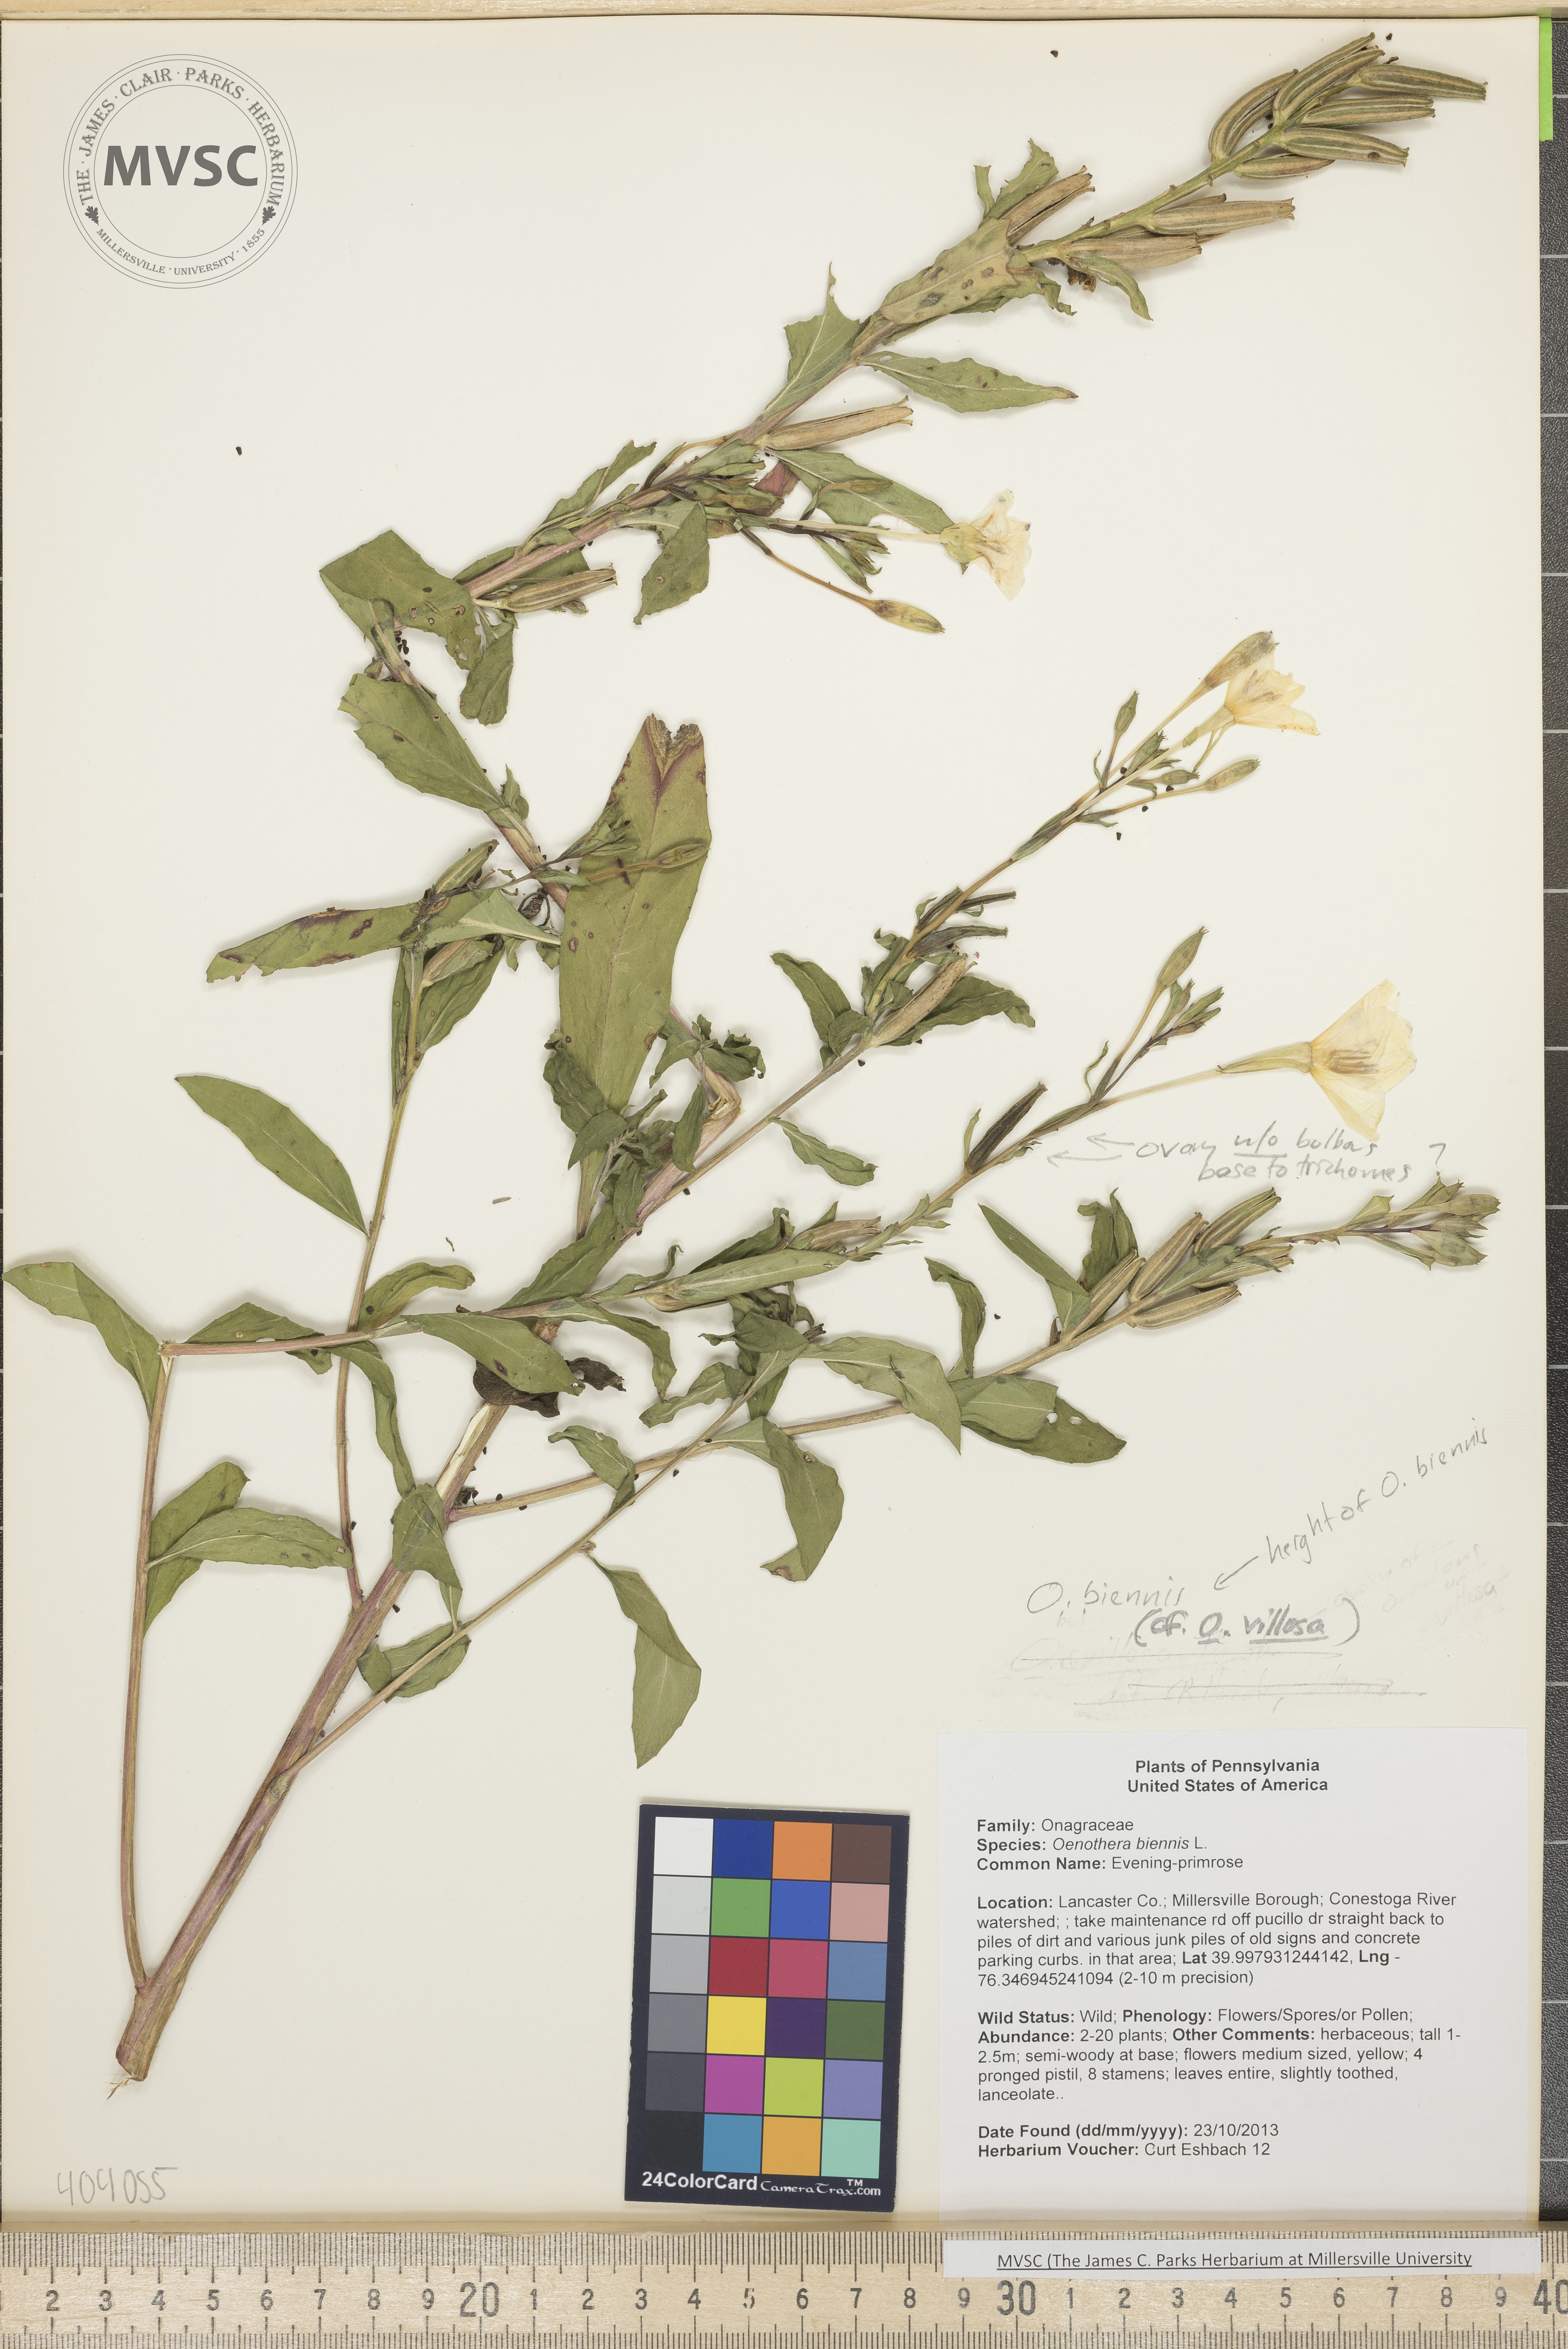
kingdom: Plantae
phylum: Tracheophyta
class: Magnoliopsida
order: Myrtales
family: Onagraceae
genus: Oenothera
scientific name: Oenothera biennis
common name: Evening-primrose
